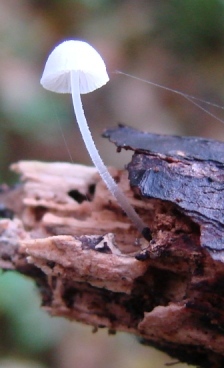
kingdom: Fungi
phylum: Basidiomycota
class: Agaricomycetes
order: Agaricales
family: Mycenaceae
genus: Mycena
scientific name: Mycena tenerrima
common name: pudret huesvamp
